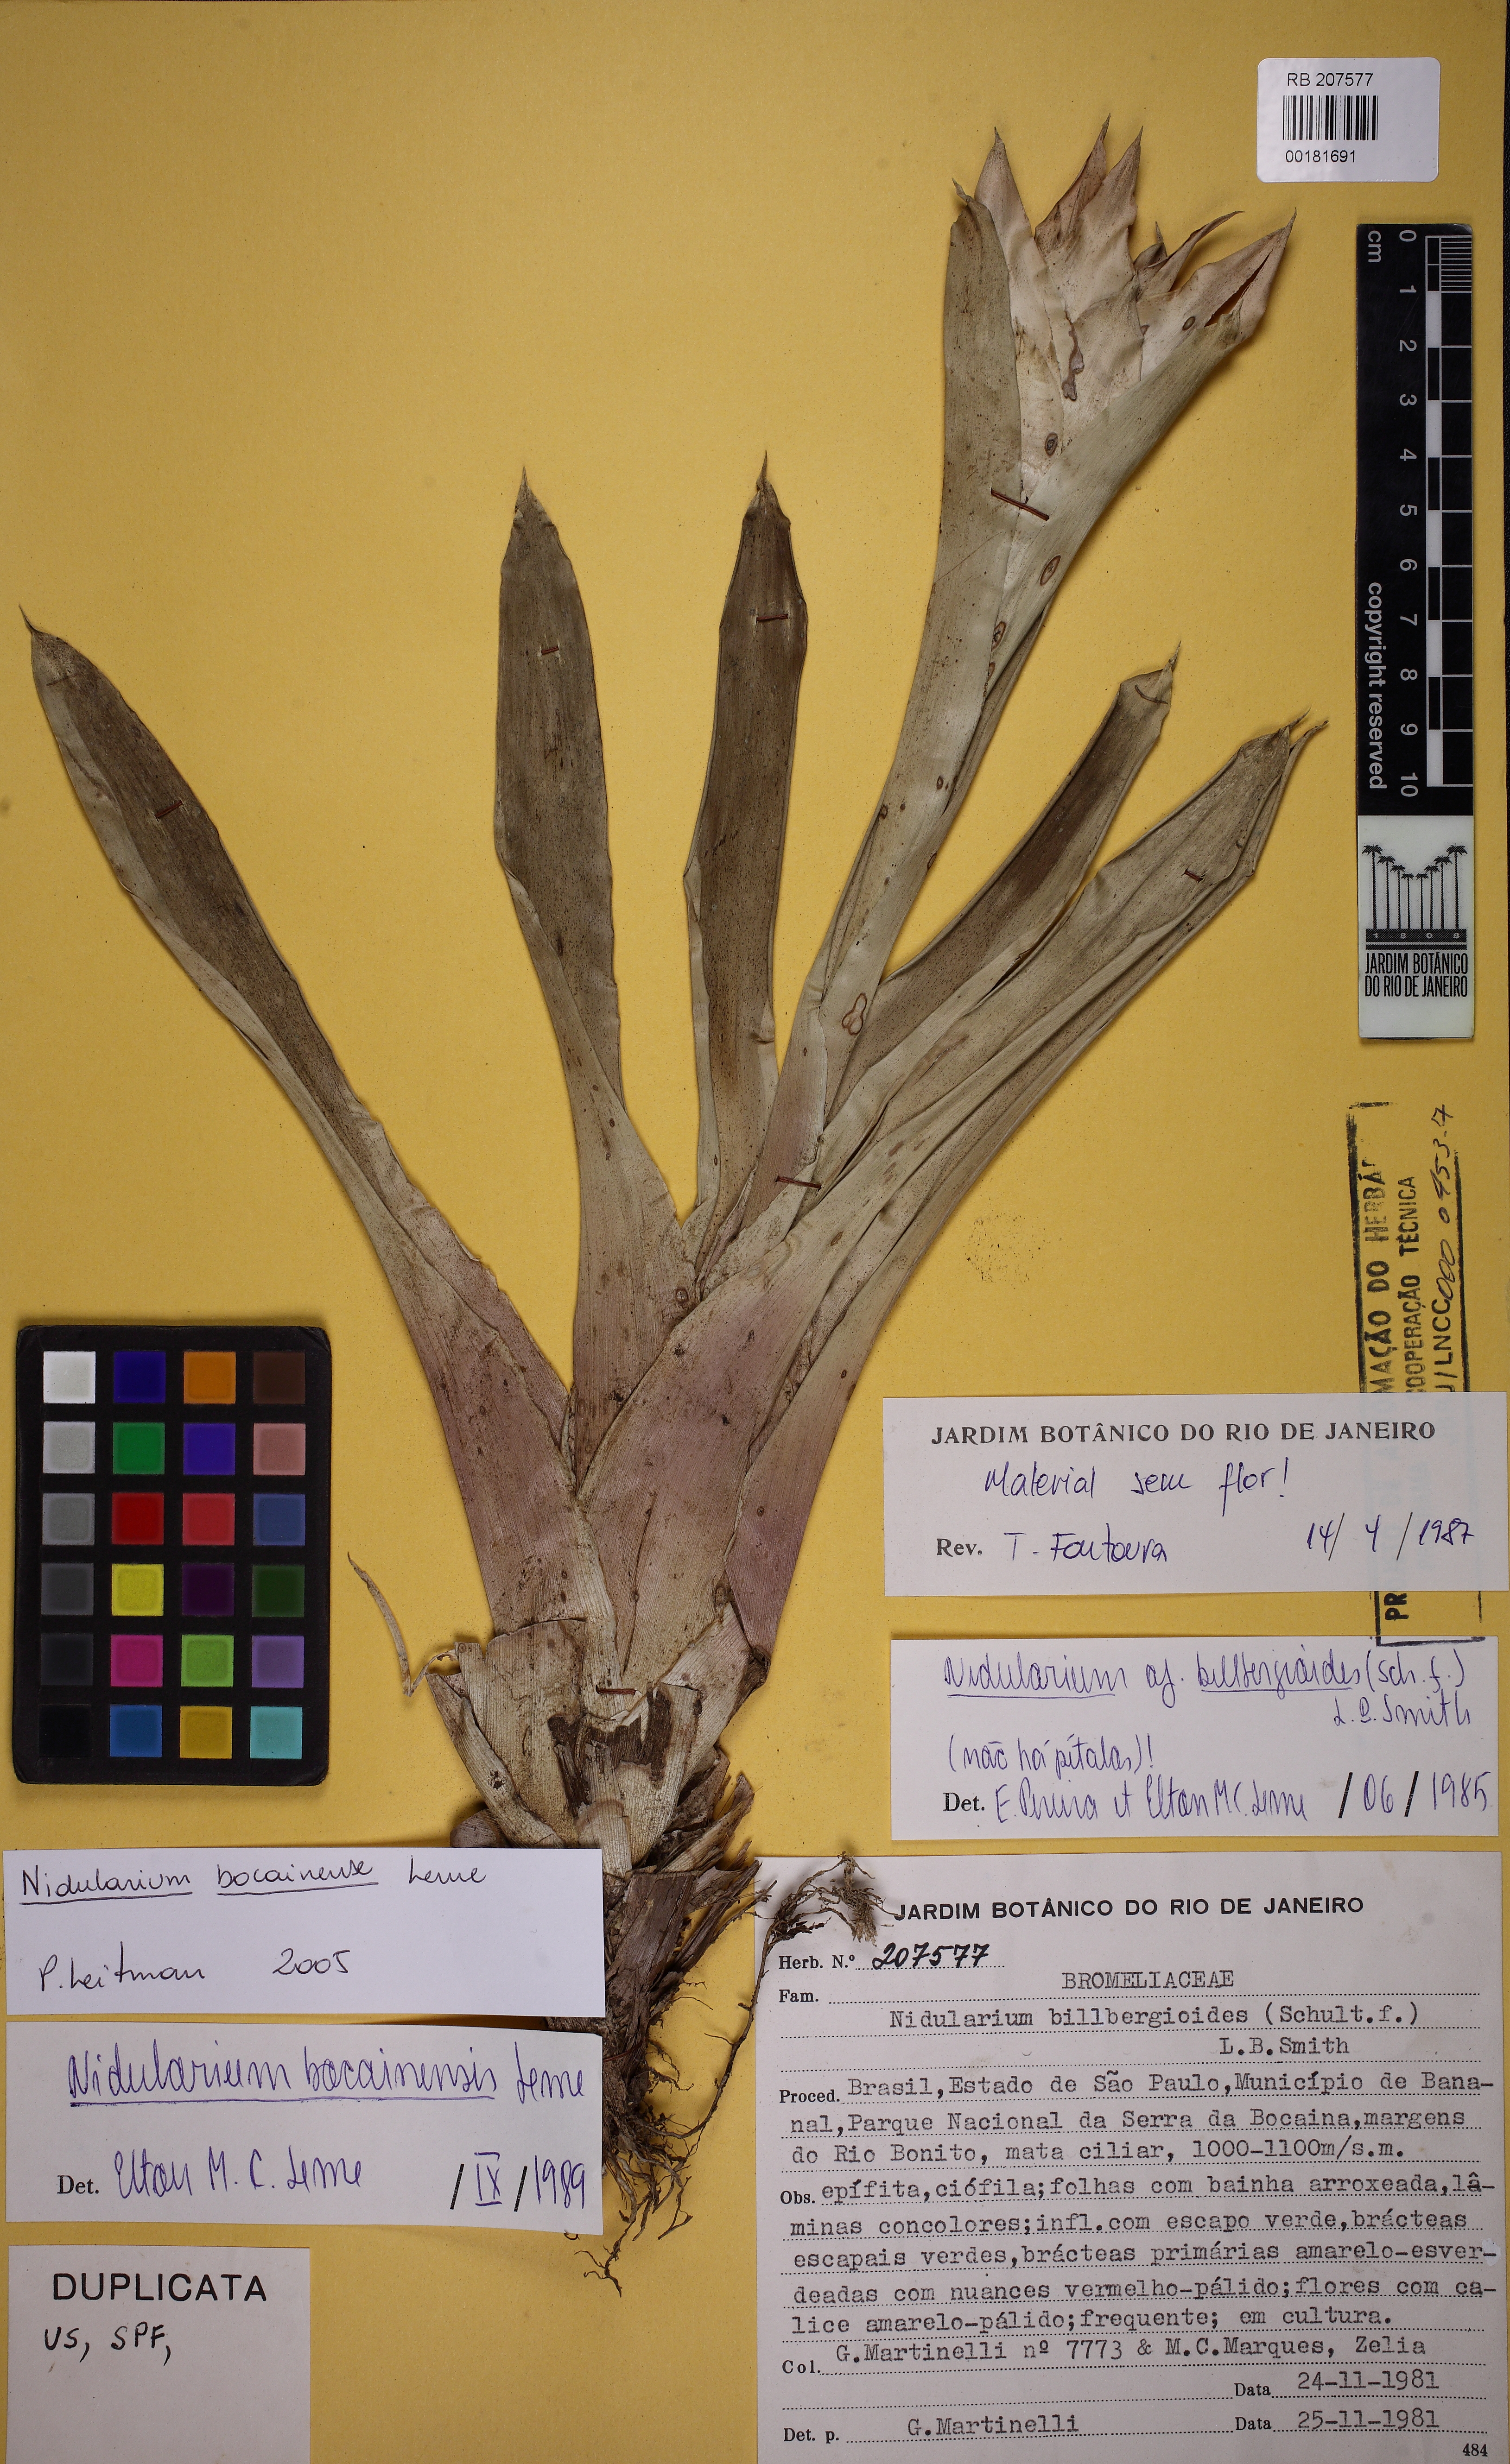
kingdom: Plantae
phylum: Tracheophyta
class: Liliopsida
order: Poales
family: Bromeliaceae
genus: Nidularium
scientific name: Nidularium bocainense
